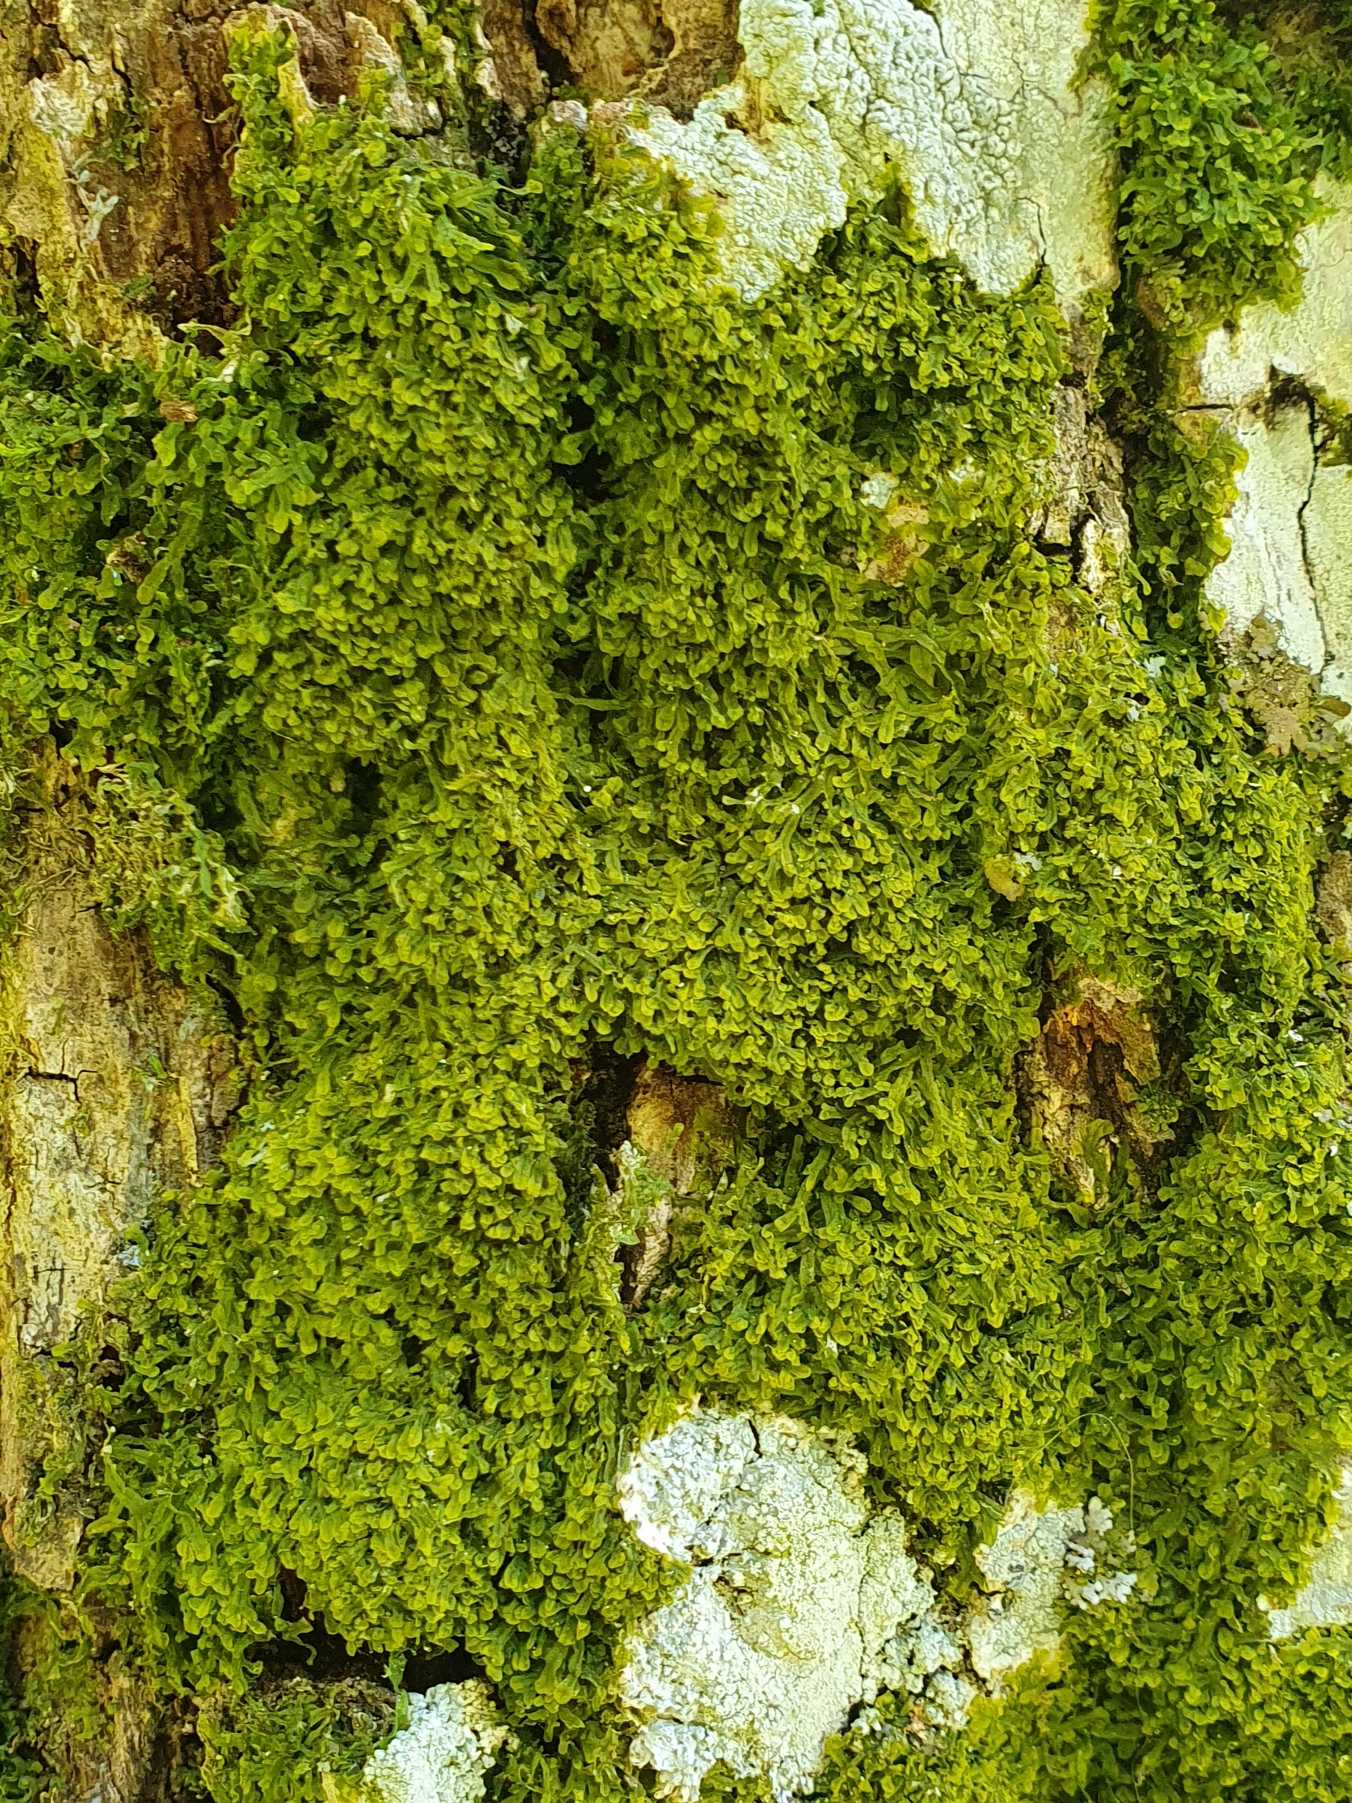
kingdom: Plantae
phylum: Marchantiophyta
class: Jungermanniopsida
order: Metzgeriales
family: Metzgeriaceae
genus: Metzgeria
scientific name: Metzgeria furcata
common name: Almindelig gaffelløv
